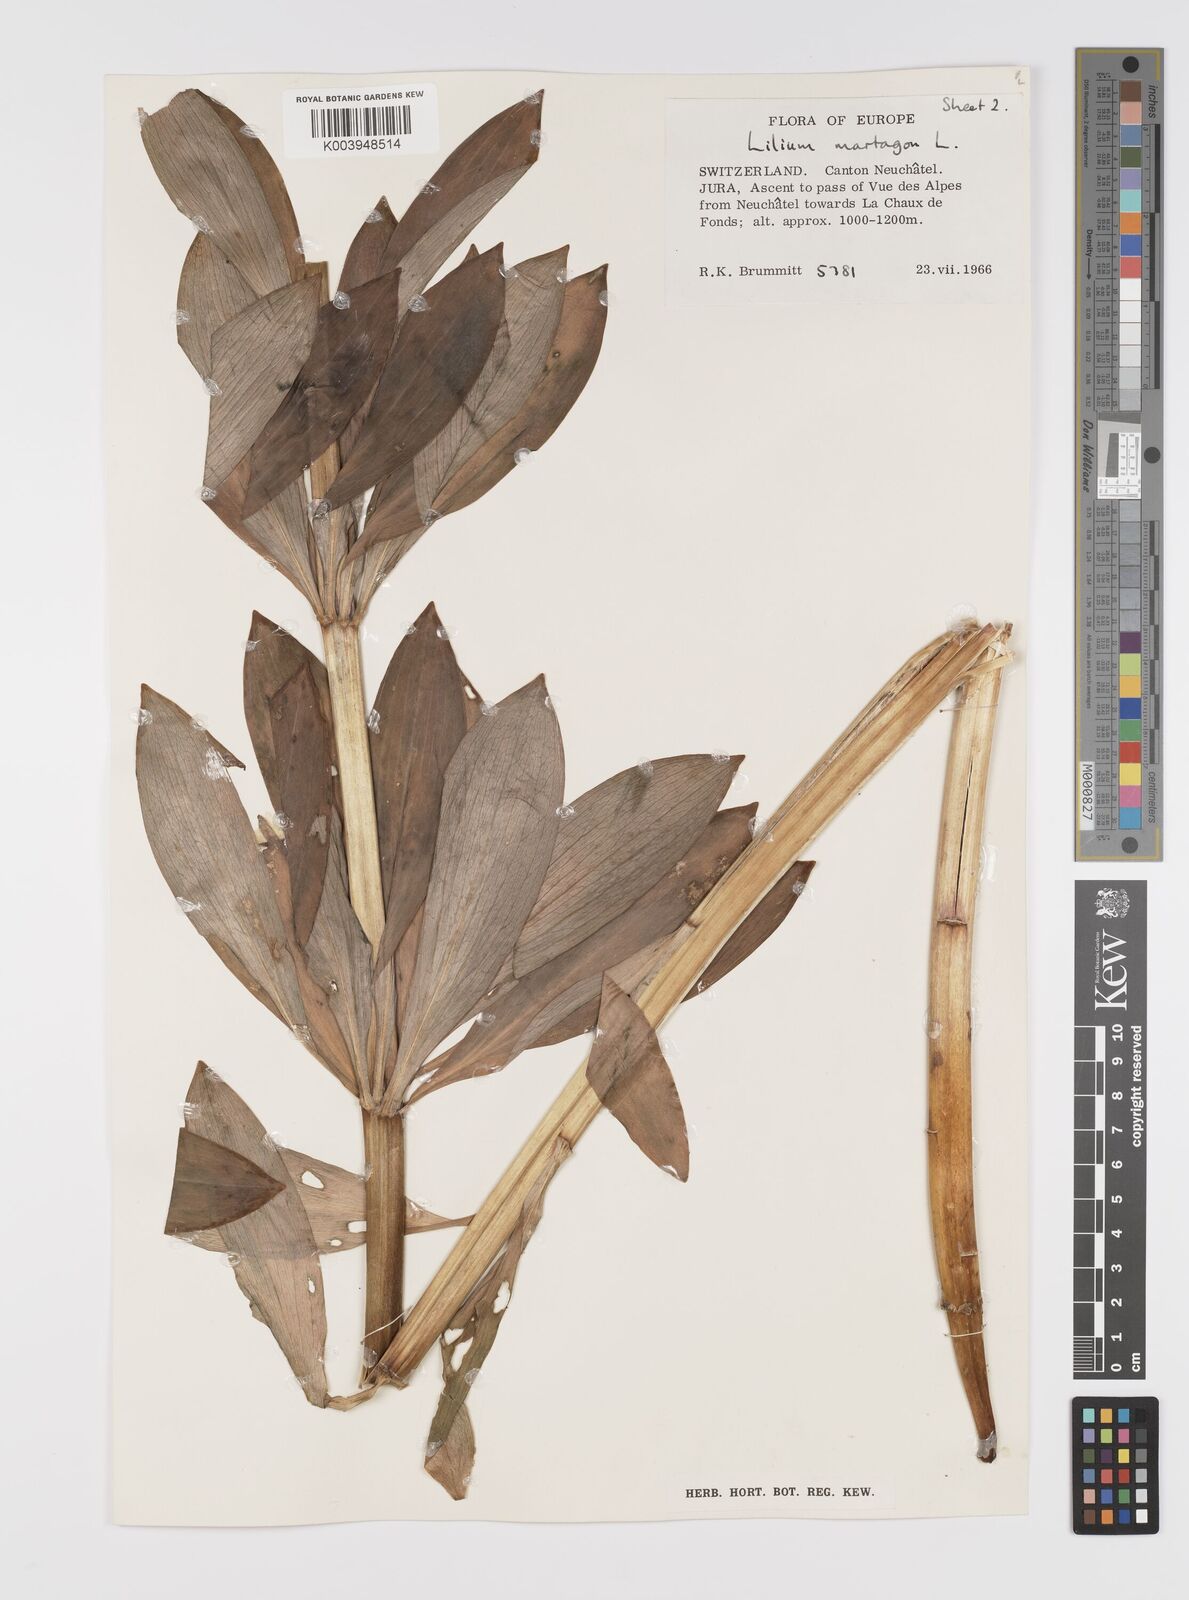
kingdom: Plantae
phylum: Tracheophyta
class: Liliopsida
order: Liliales
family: Liliaceae
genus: Lilium
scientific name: Lilium martagon
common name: Martagon lily
